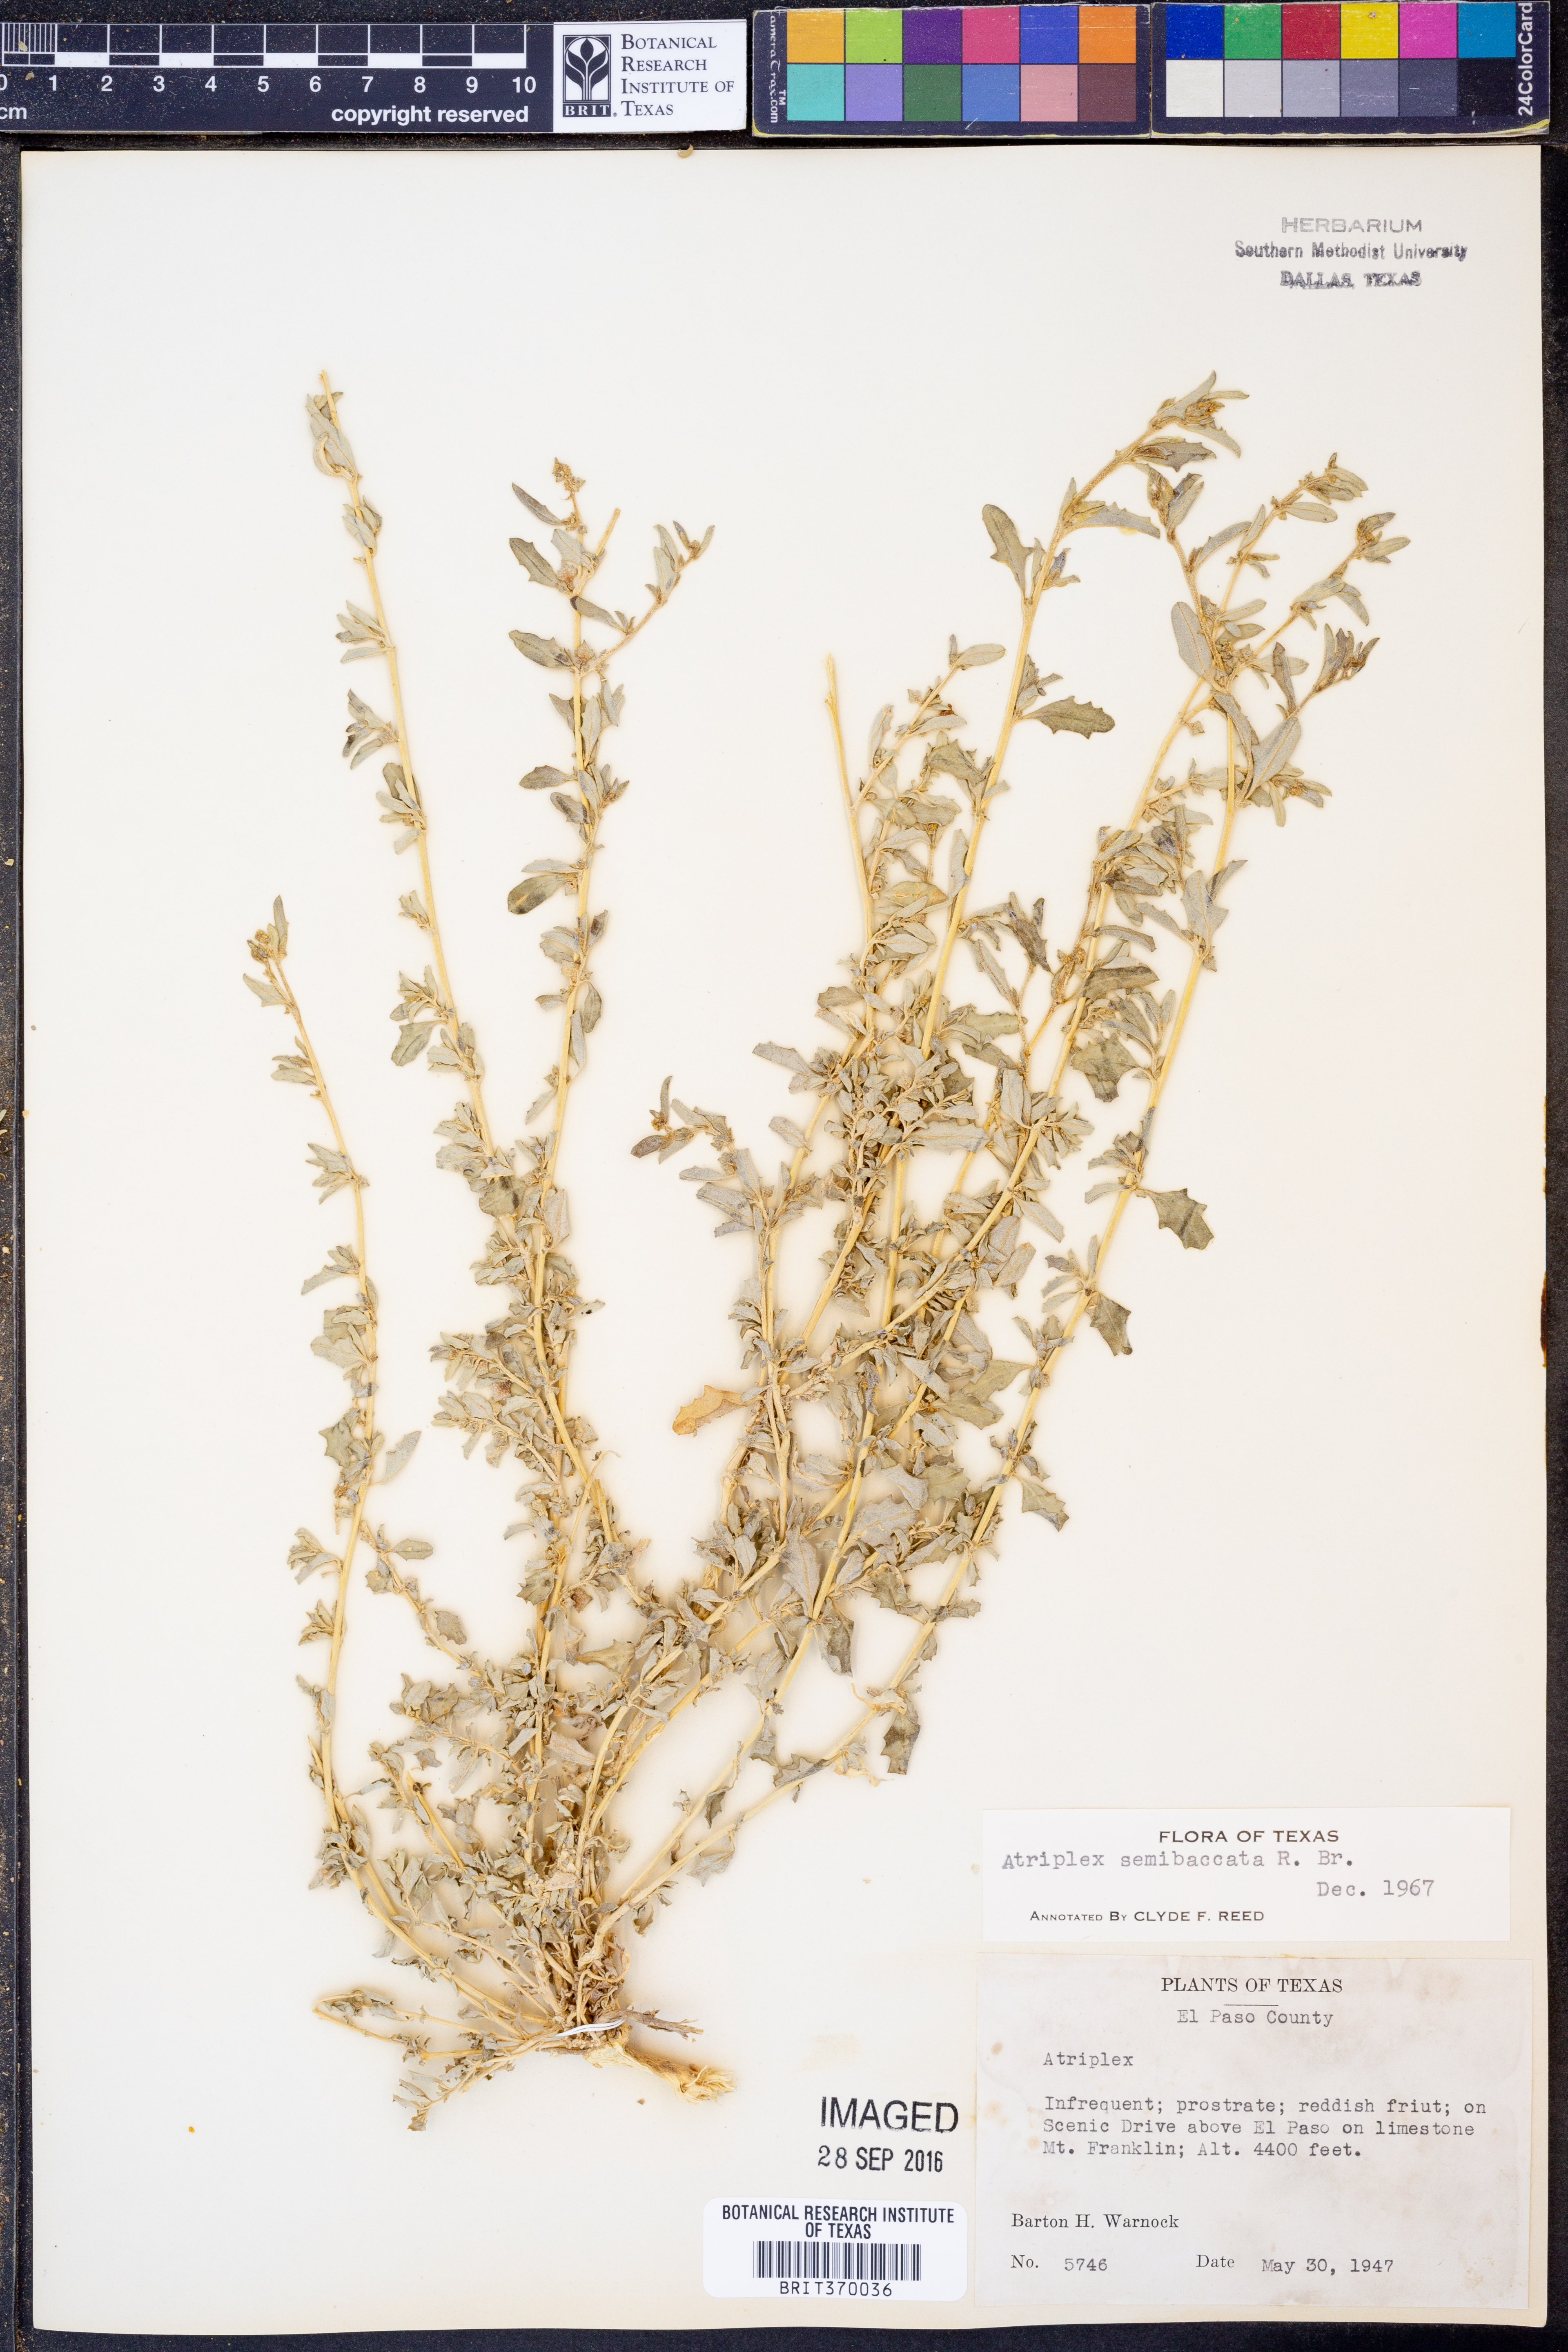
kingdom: Plantae
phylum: Tracheophyta
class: Magnoliopsida
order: Caryophyllales
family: Amaranthaceae
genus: Atriplex
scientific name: Atriplex semibaccata
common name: Australian saltbush
